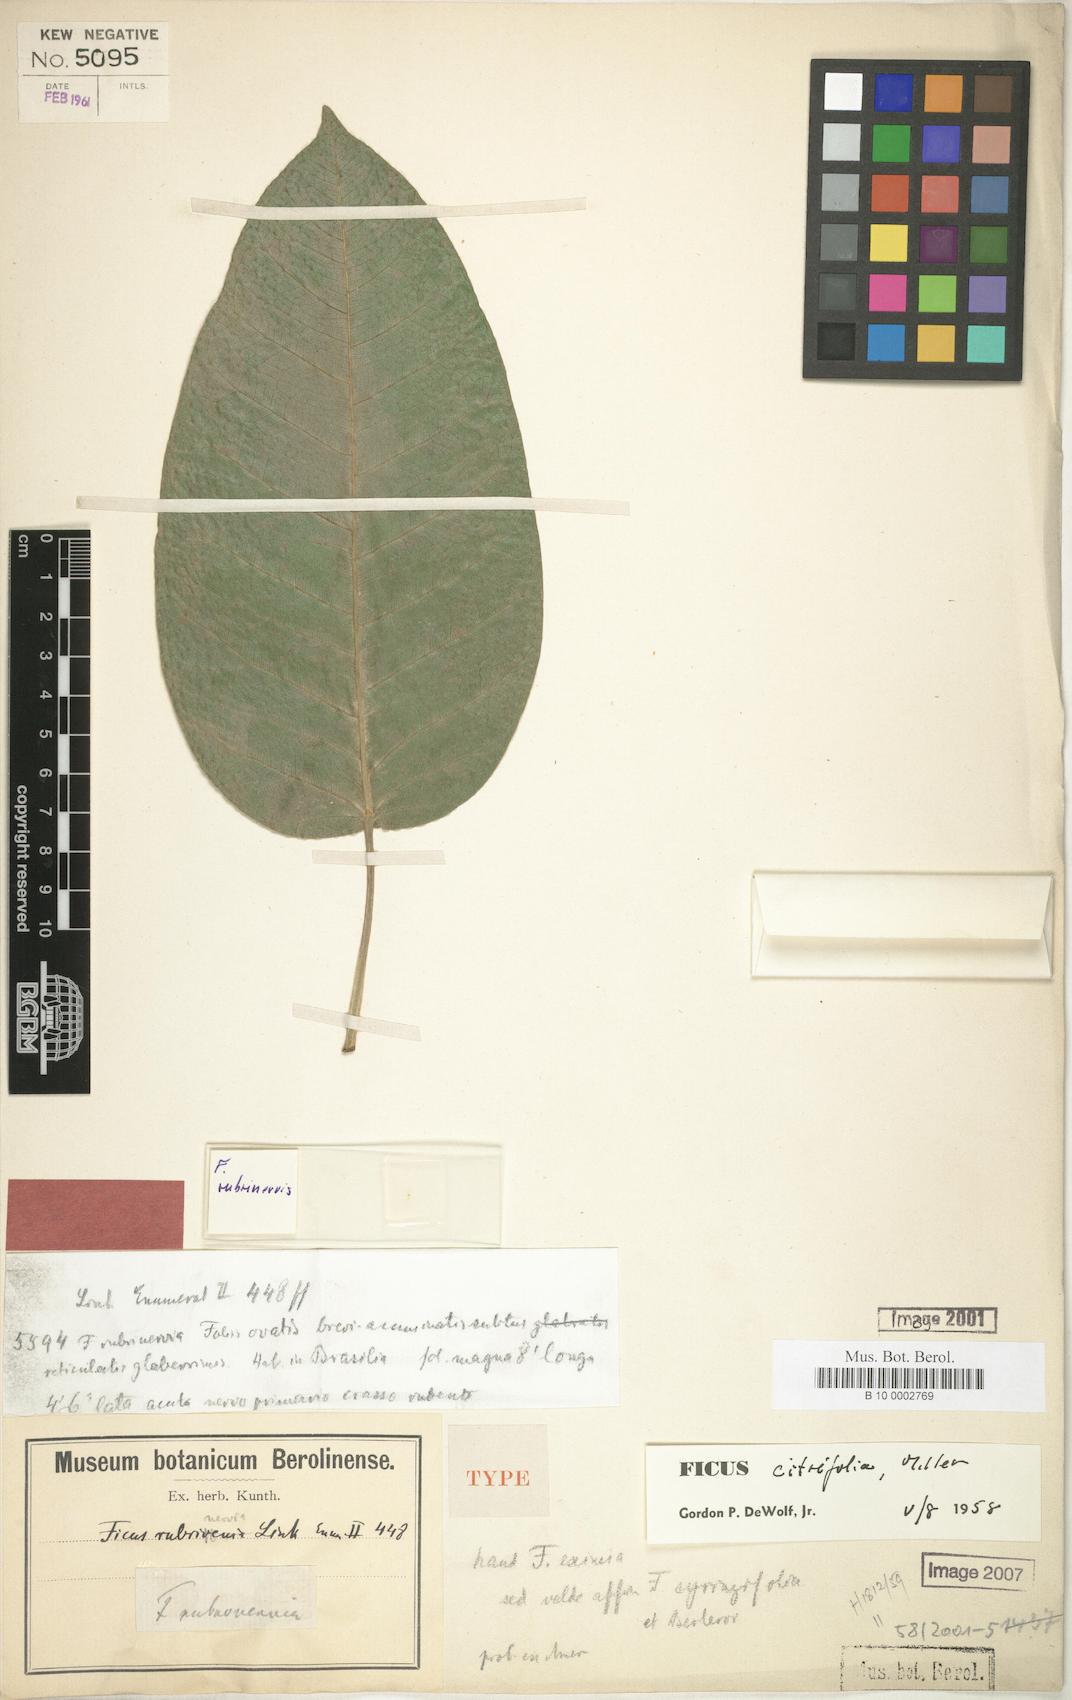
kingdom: Plantae
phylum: Tracheophyta
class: Magnoliopsida
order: Rosales
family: Moraceae
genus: Ficus
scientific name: Ficus citrifolia
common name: Strangler fig
